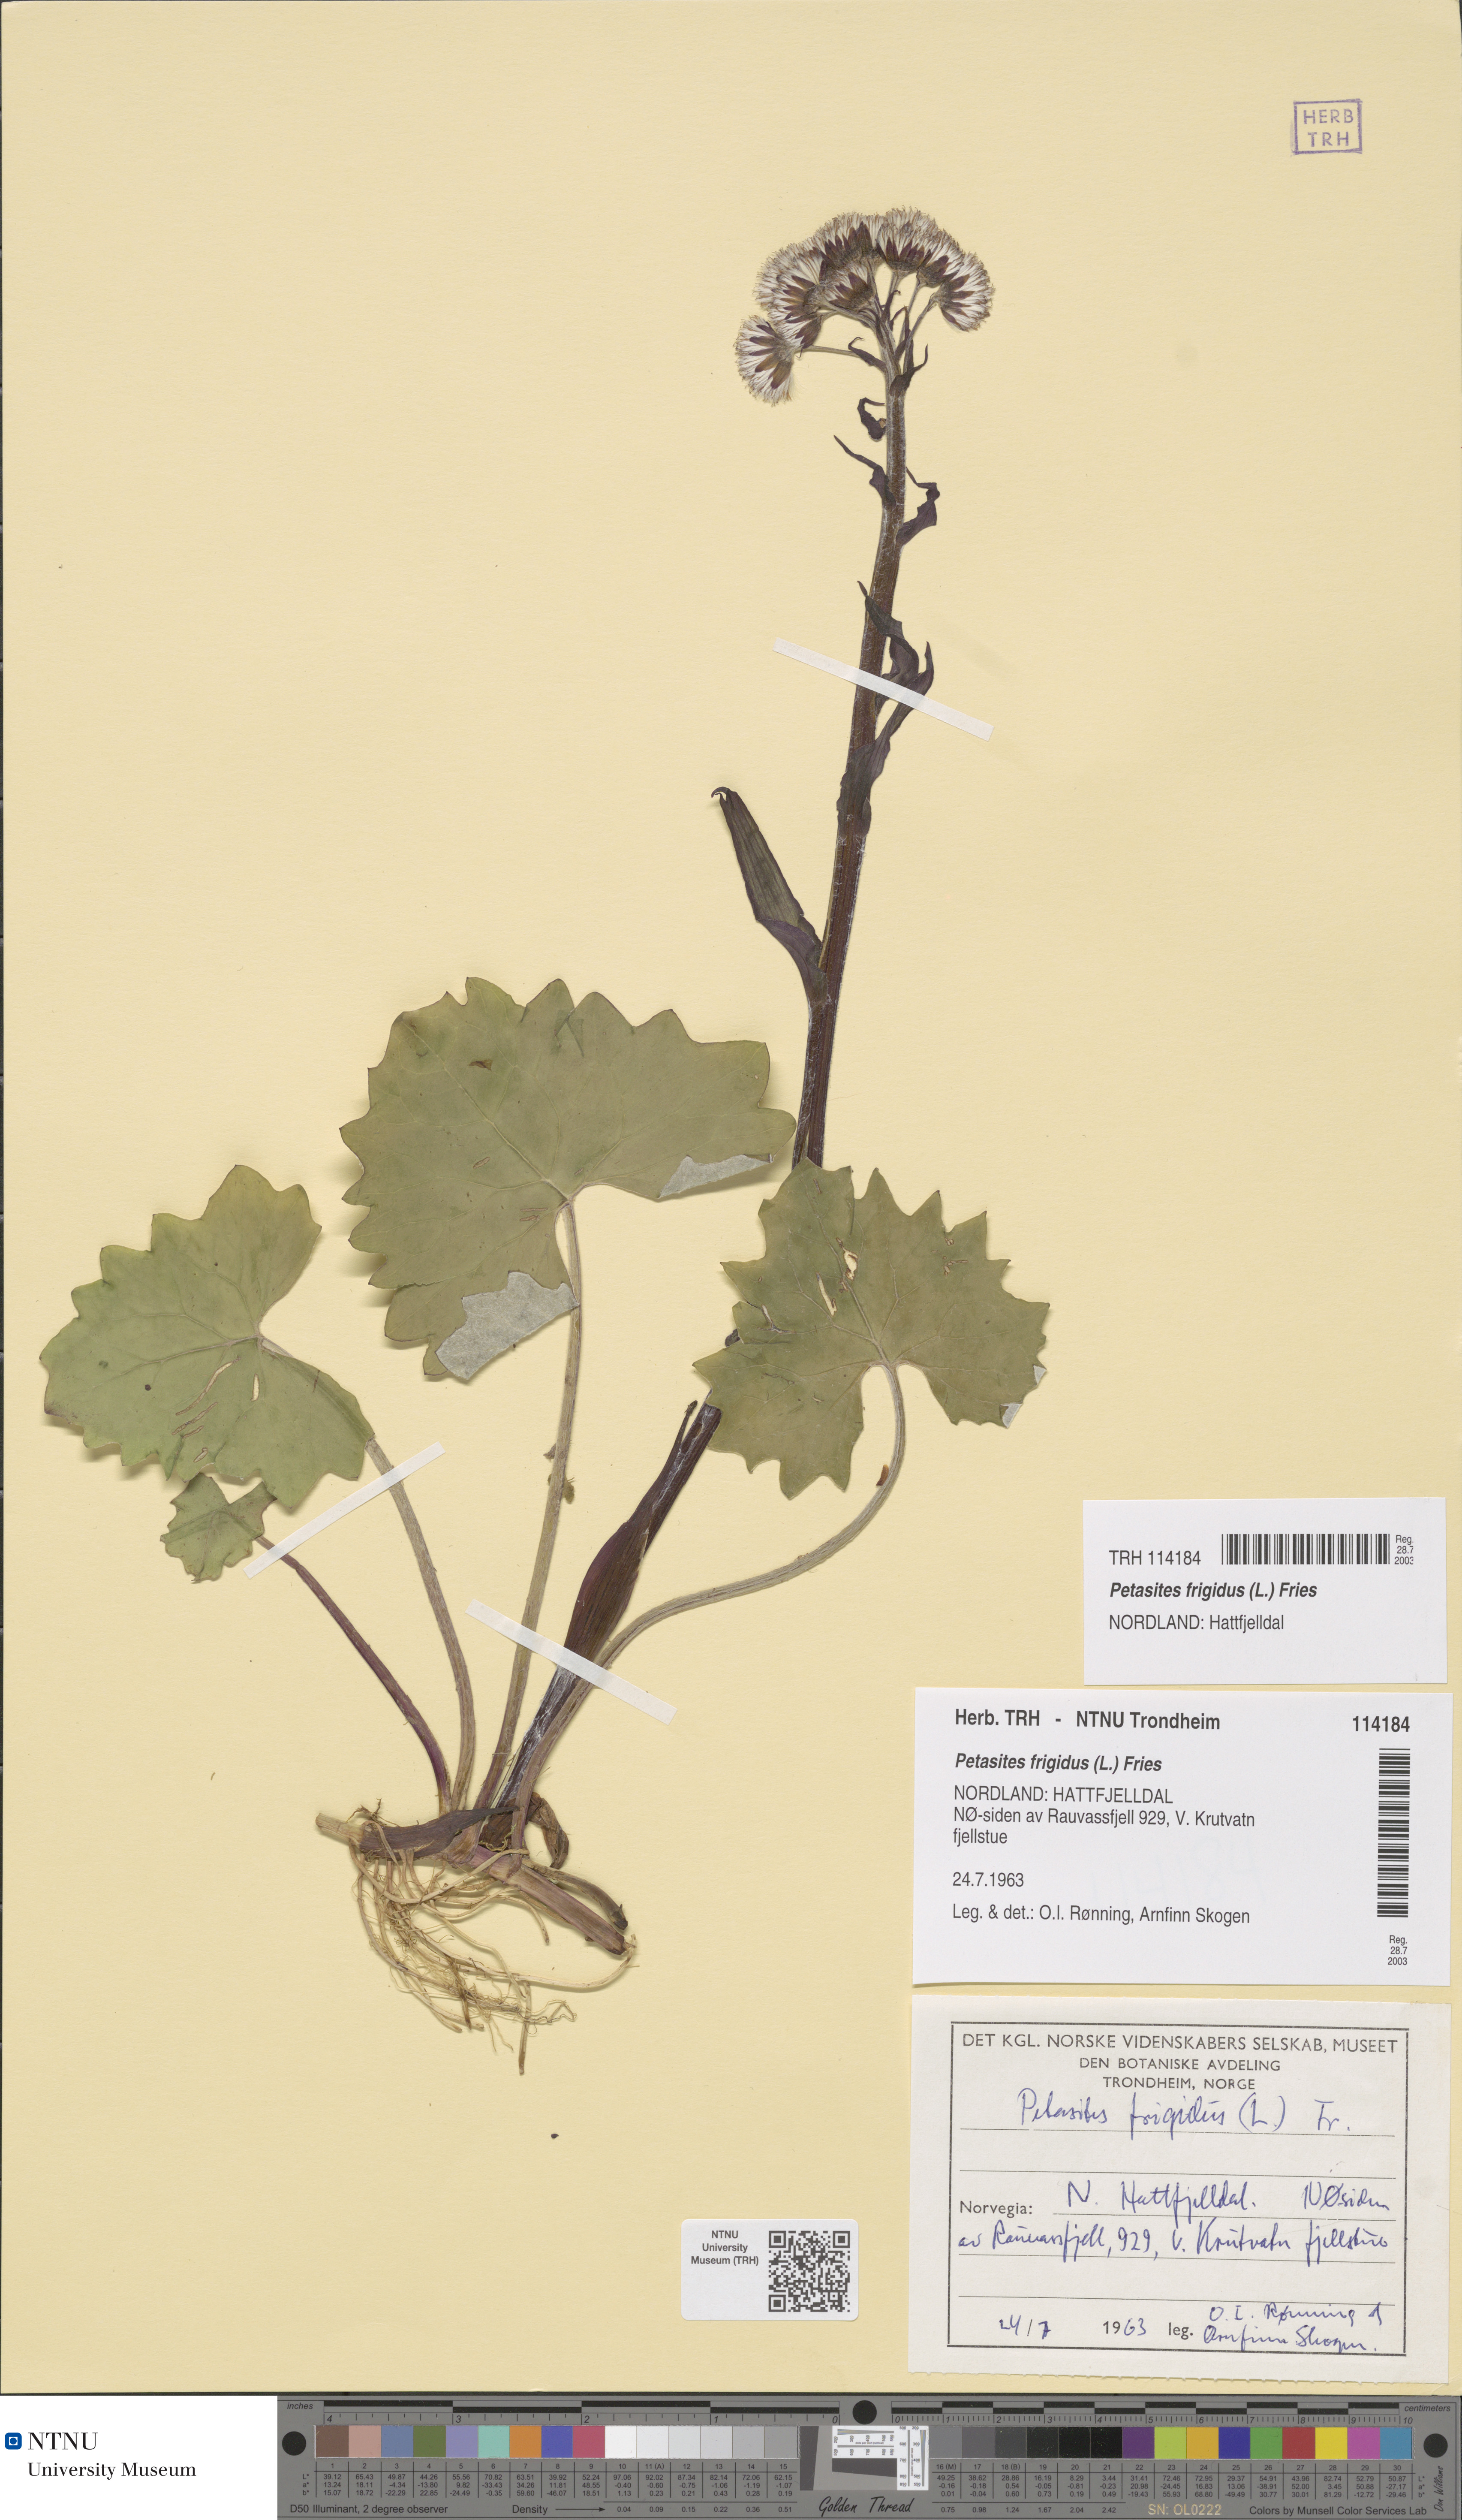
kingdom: Plantae
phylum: Tracheophyta
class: Magnoliopsida
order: Asterales
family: Asteraceae
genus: Petasites
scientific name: Petasites frigidus
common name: Arctic butterbur
